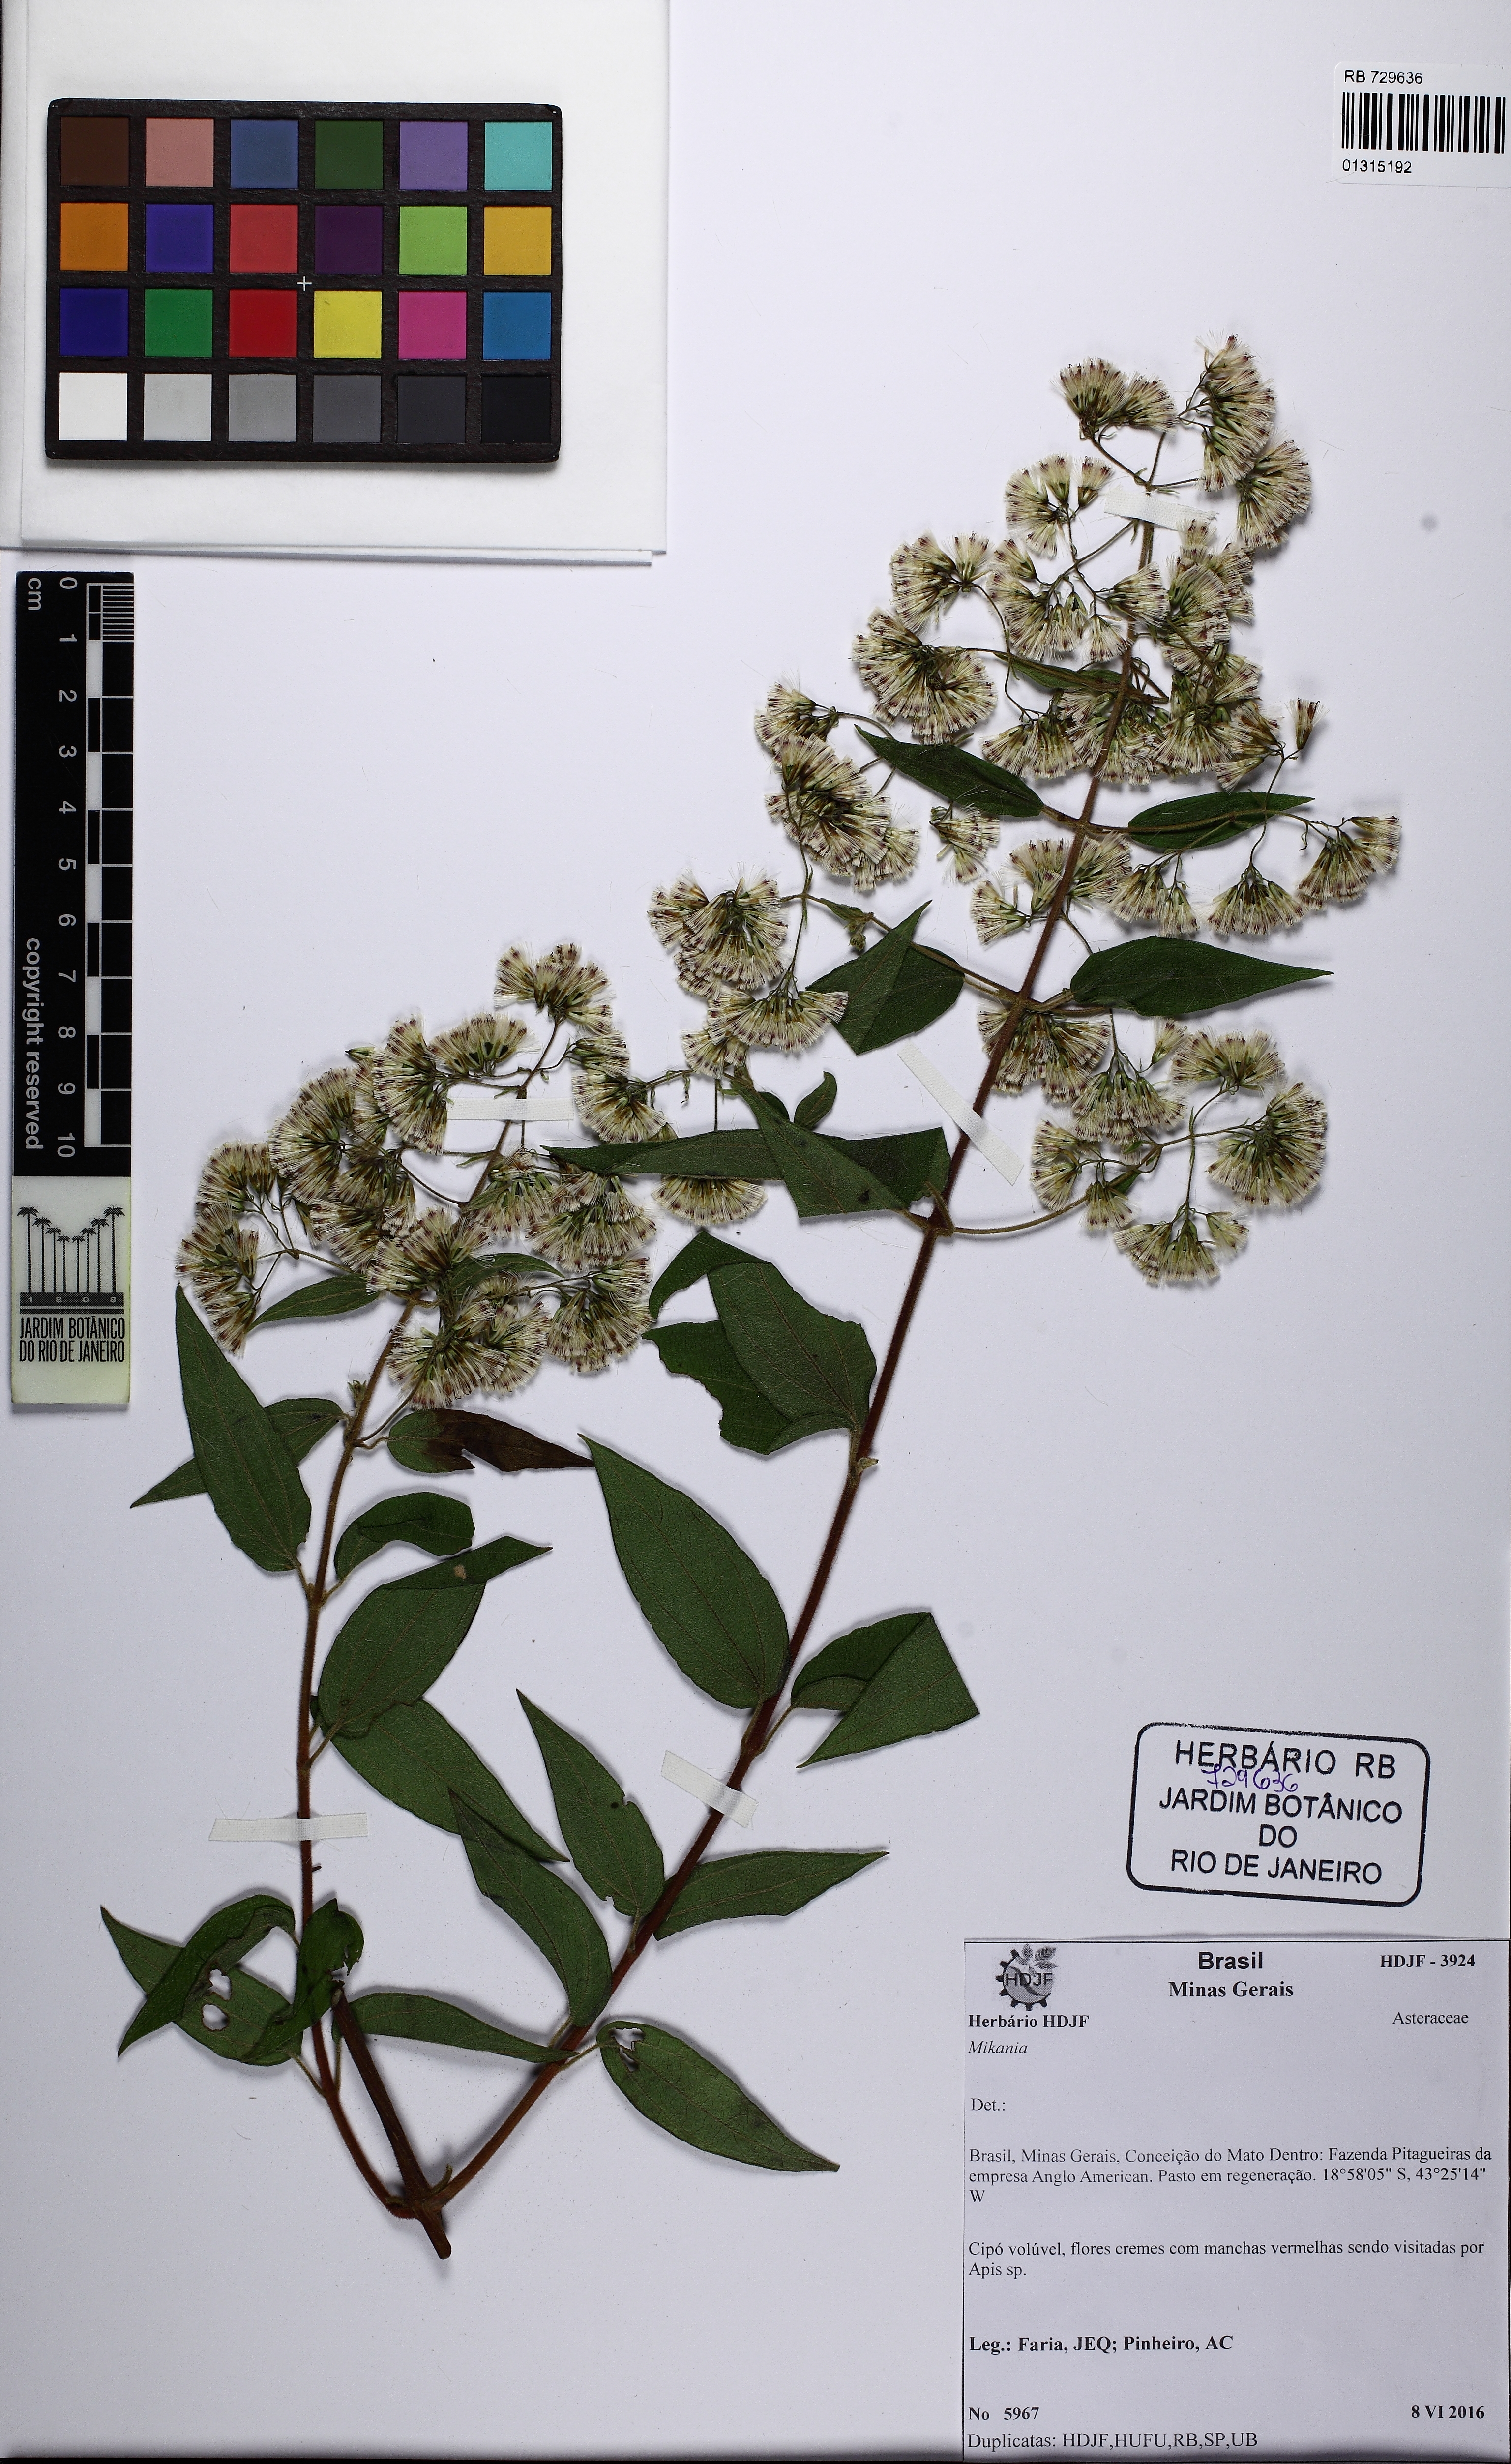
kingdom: Plantae
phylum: Tracheophyta
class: Magnoliopsida
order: Asterales
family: Asteraceae
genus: Mikania
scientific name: Mikania
